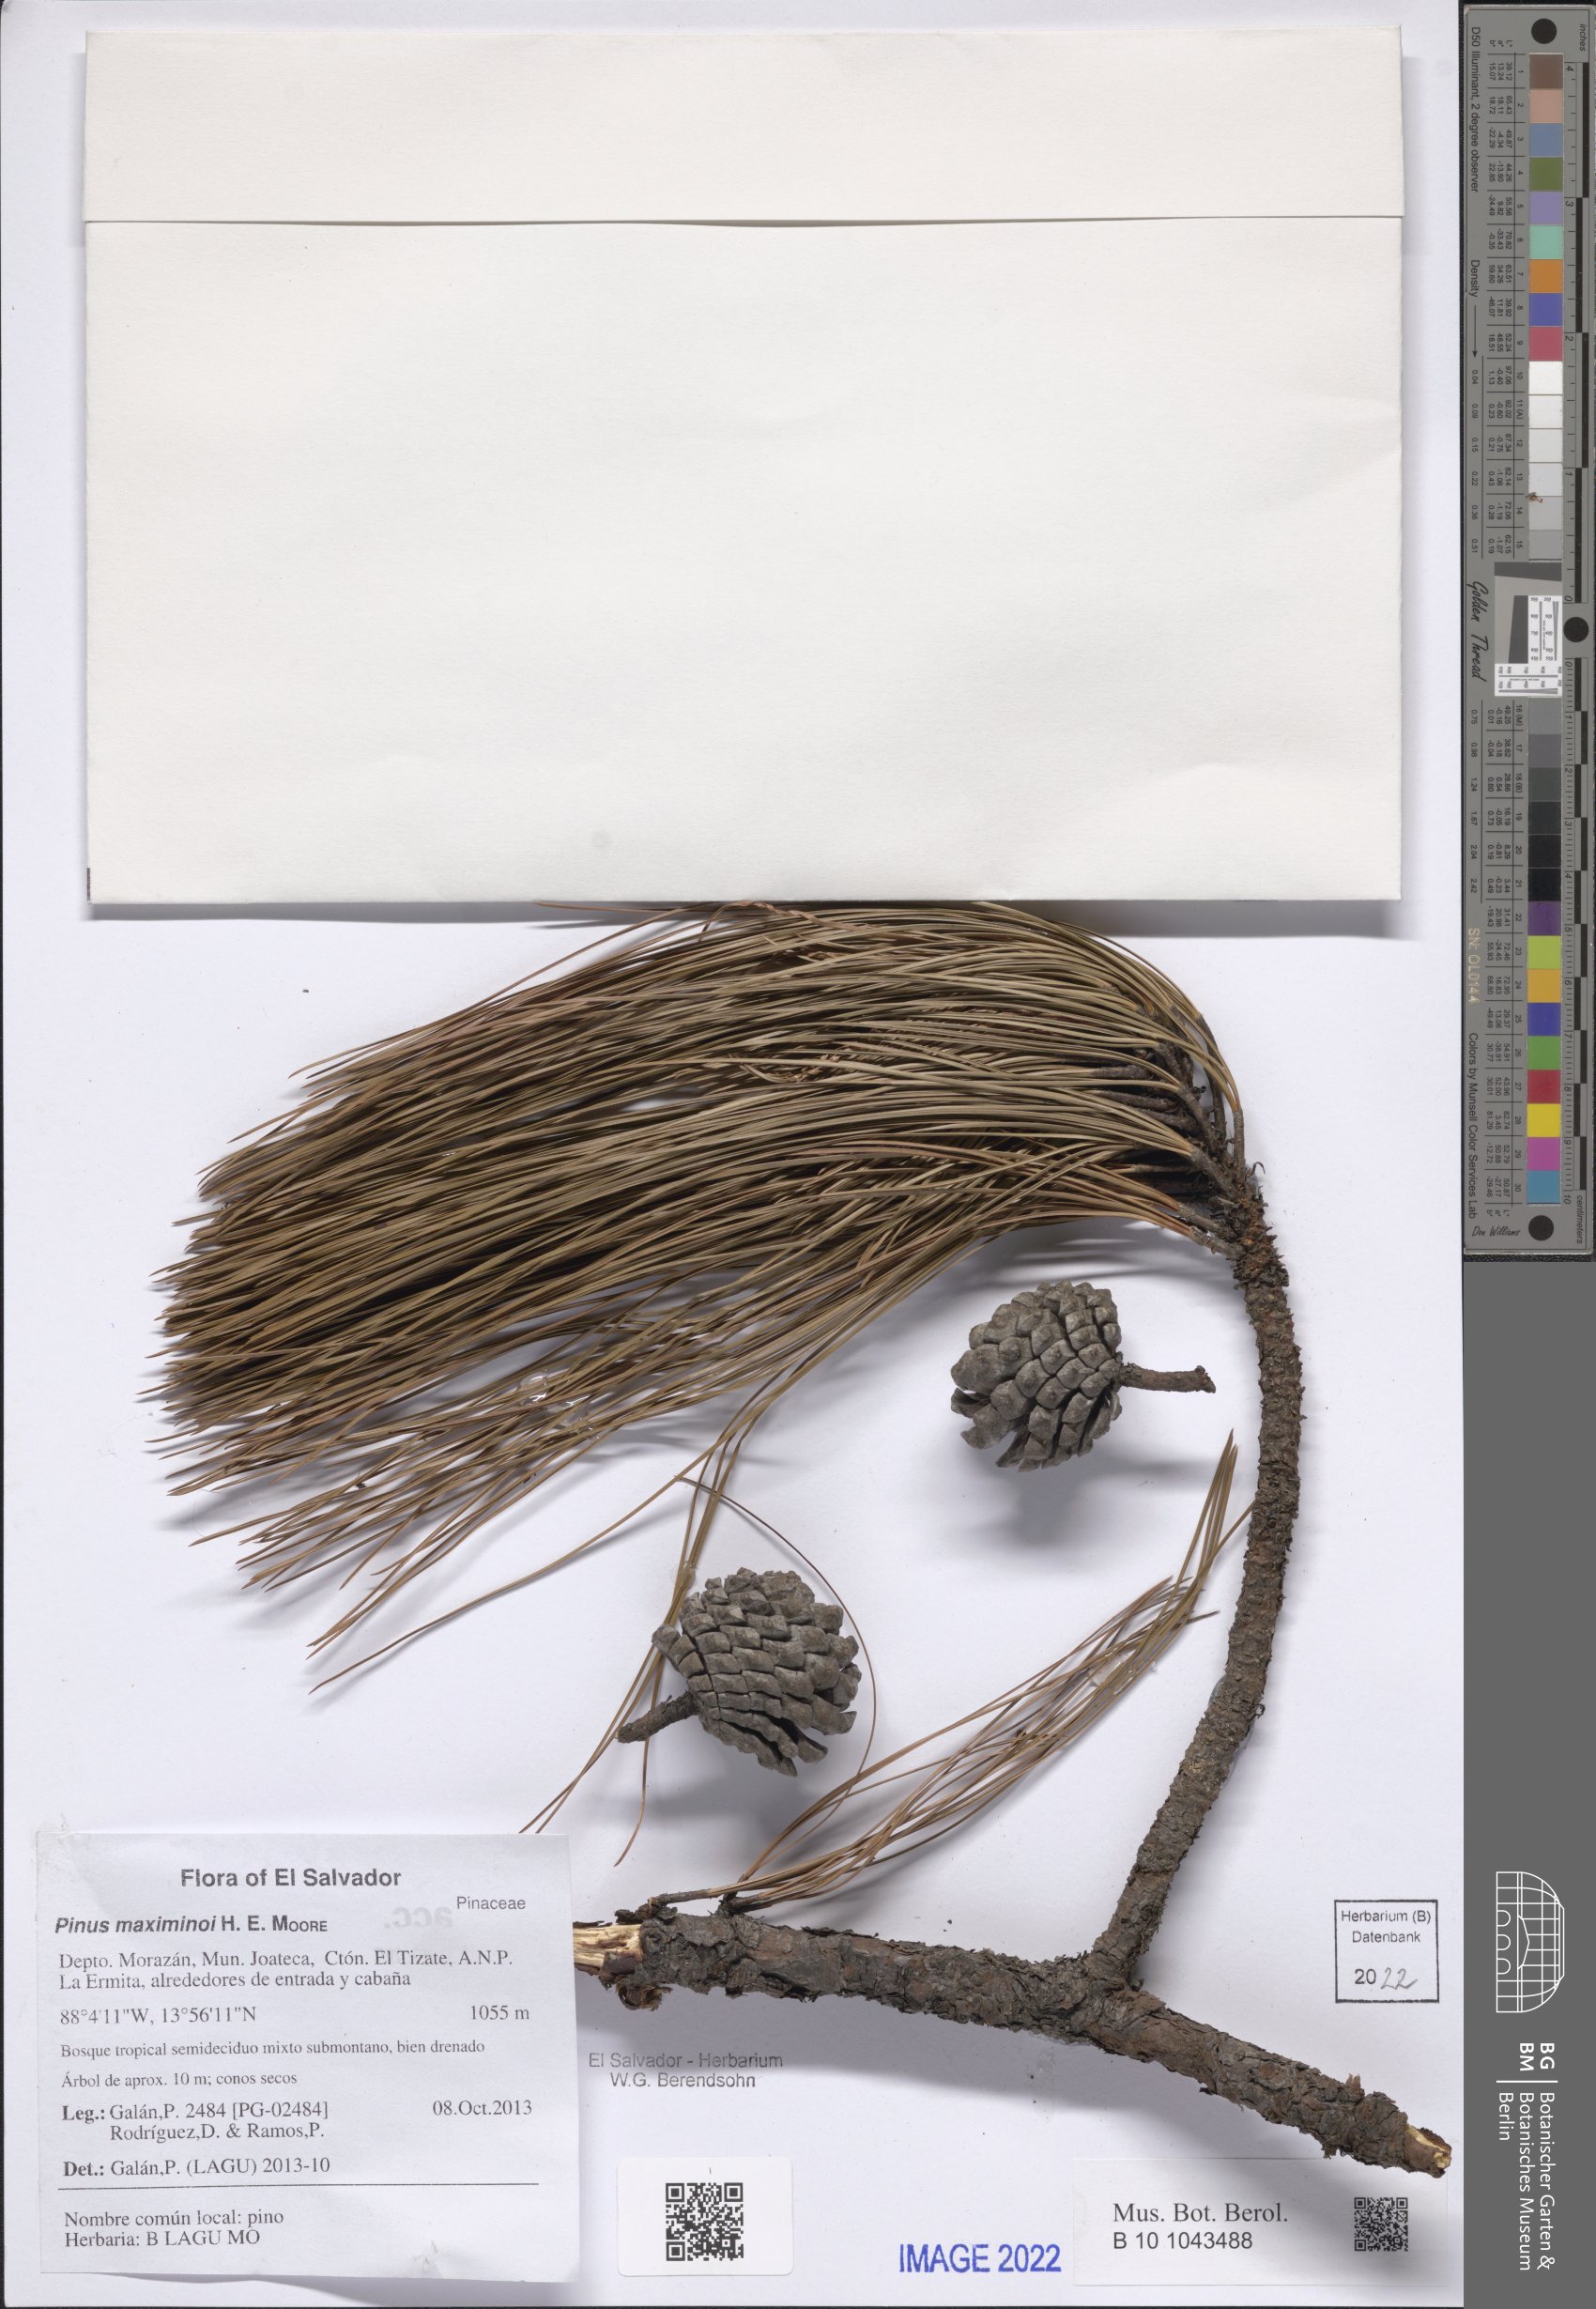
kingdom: Plantae
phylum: Tracheophyta
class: Pinopsida
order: Pinales
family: Pinaceae
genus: Pinus
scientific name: Pinus maximinoi
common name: Thin-leaf pine
